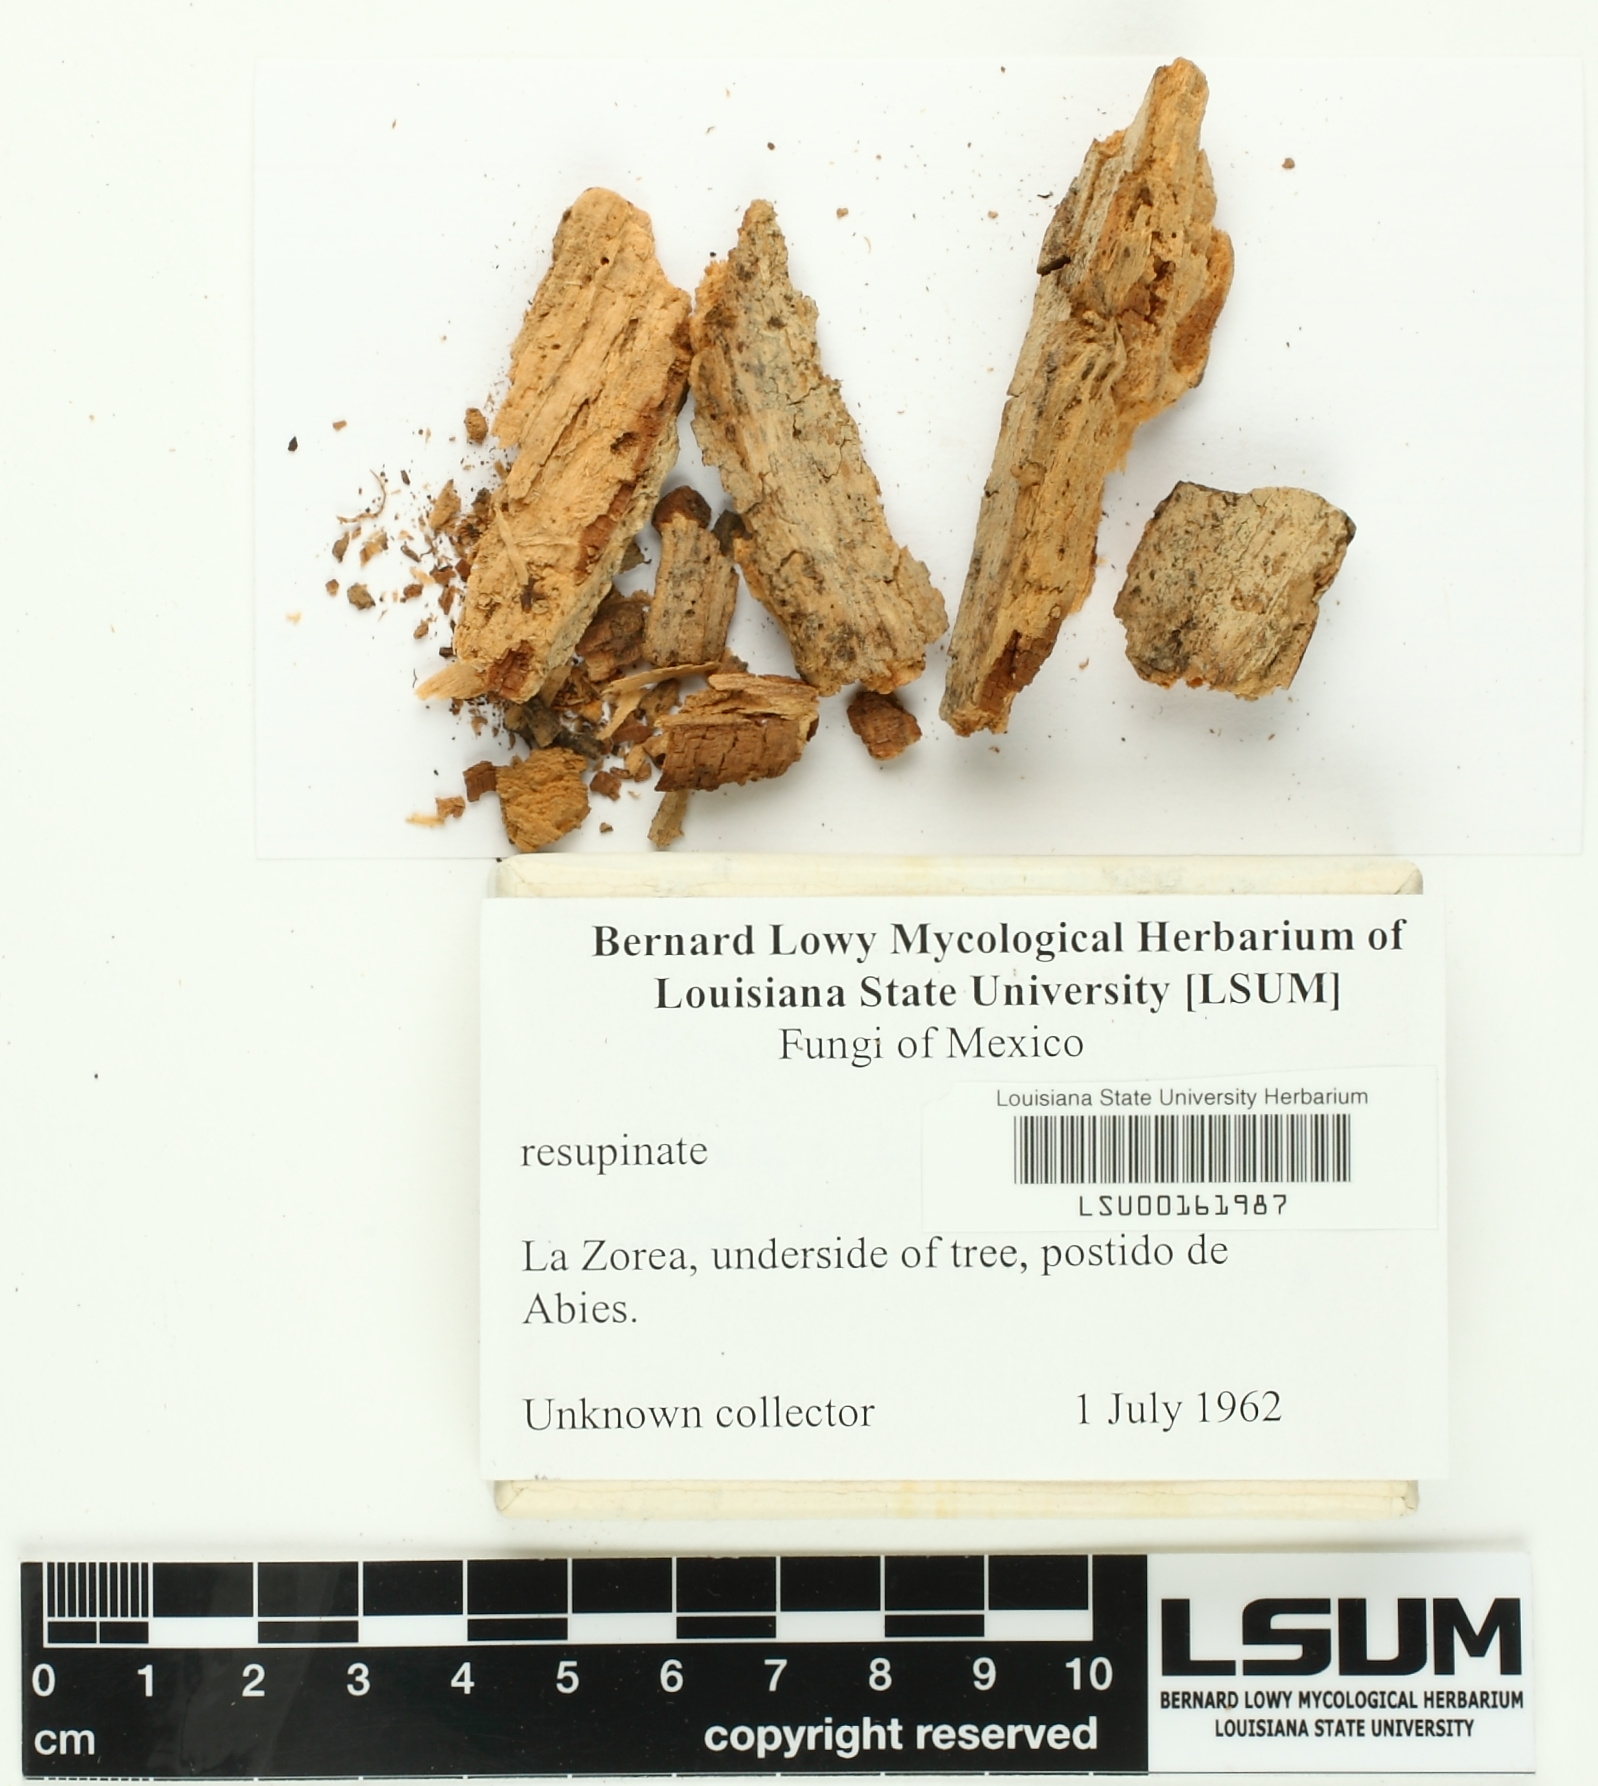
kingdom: Fungi
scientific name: Fungi
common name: Fungi
